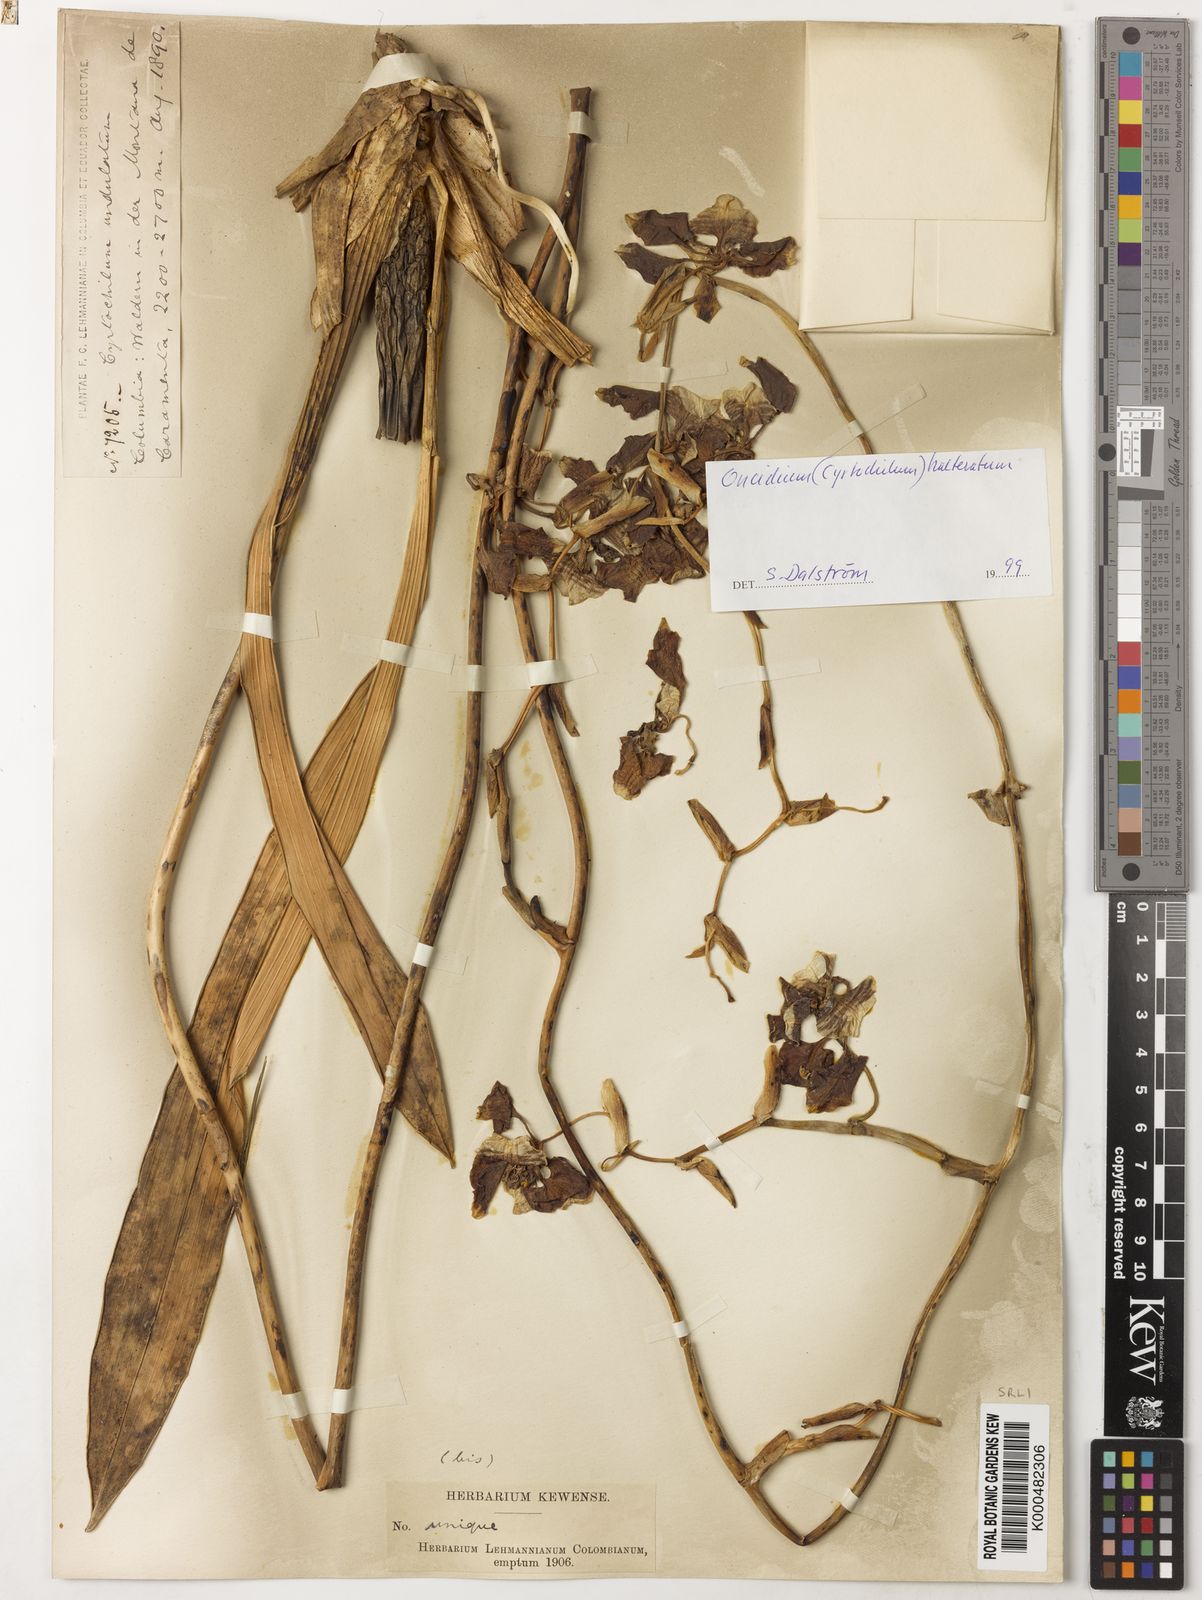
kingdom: Plantae
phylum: Tracheophyta
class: Liliopsida
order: Asparagales
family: Orchidaceae
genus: Cyrtochilum
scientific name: Cyrtochilum halteratum
